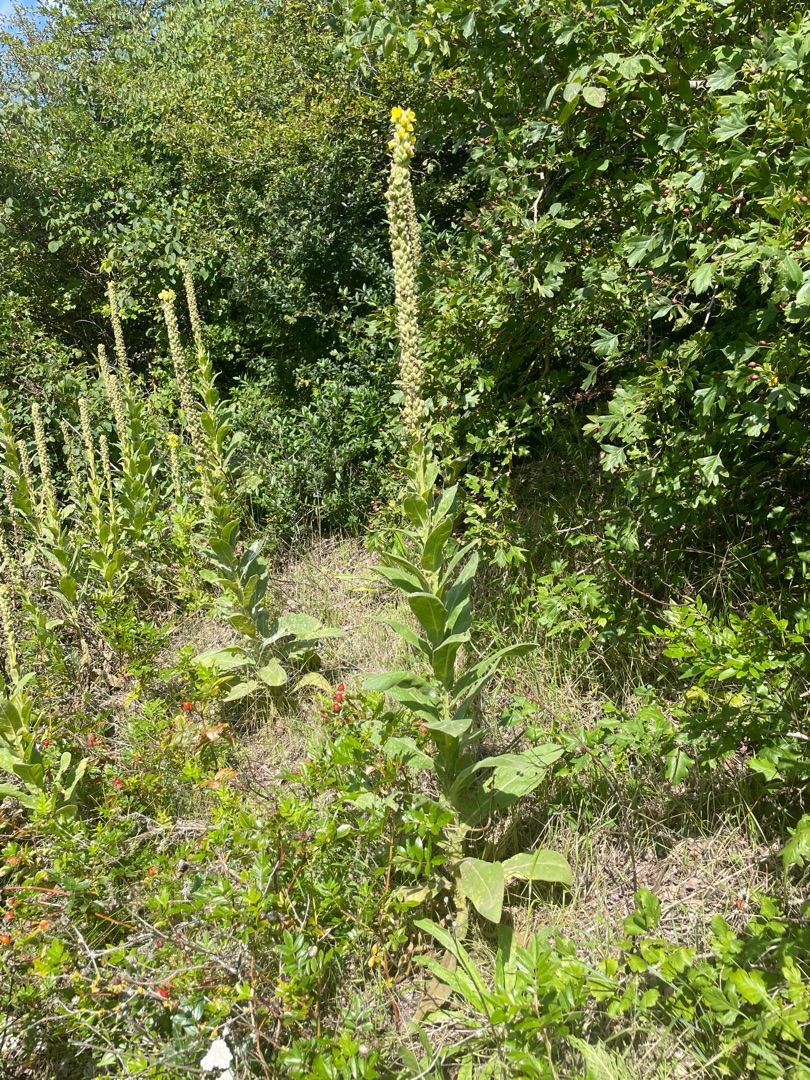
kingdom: Plantae
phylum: Tracheophyta
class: Magnoliopsida
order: Lamiales
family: Scrophulariaceae
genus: Verbascum
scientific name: Verbascum thapsus
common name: Filtbladet kongelys
